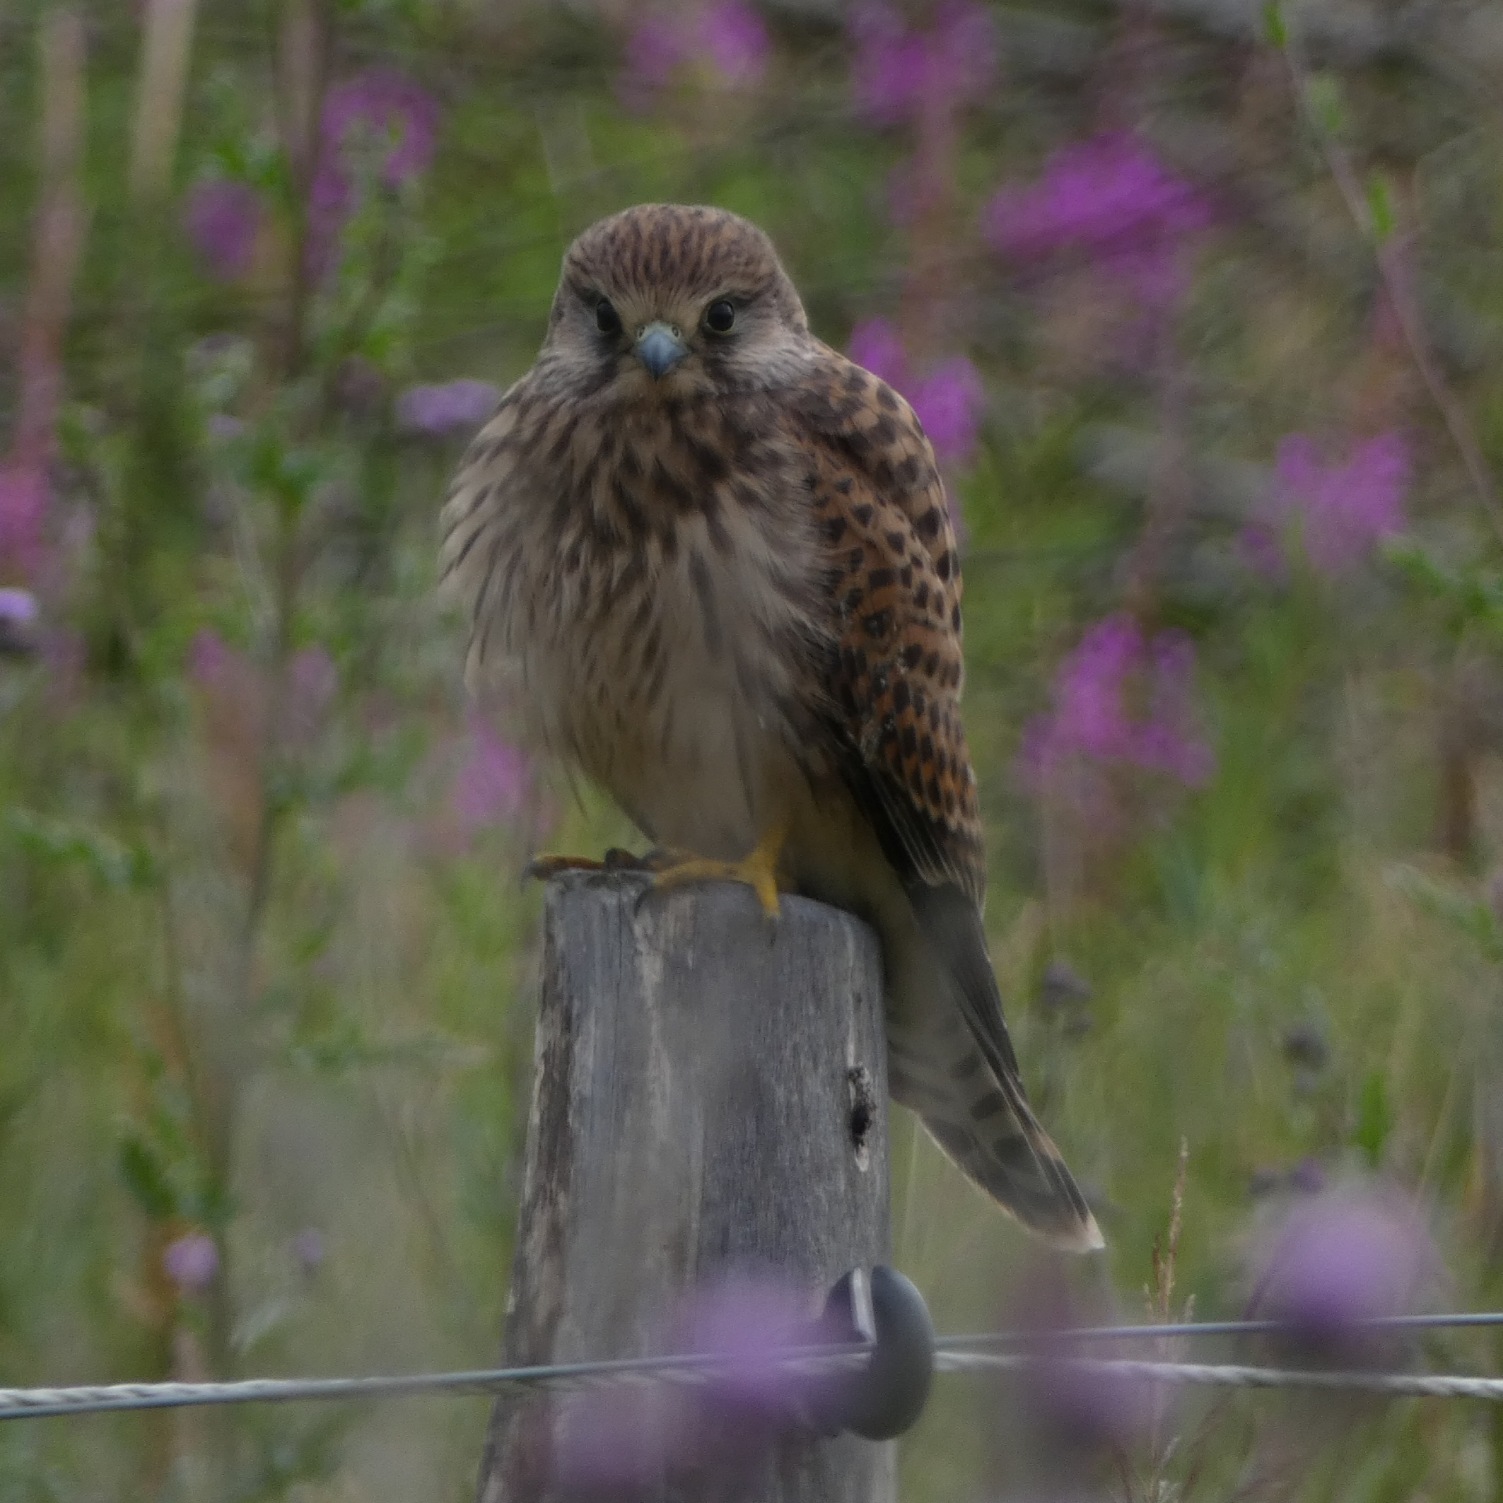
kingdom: Animalia
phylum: Chordata
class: Aves
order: Falconiformes
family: Falconidae
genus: Falco
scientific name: Falco tinnunculus
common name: Tårnfalk
